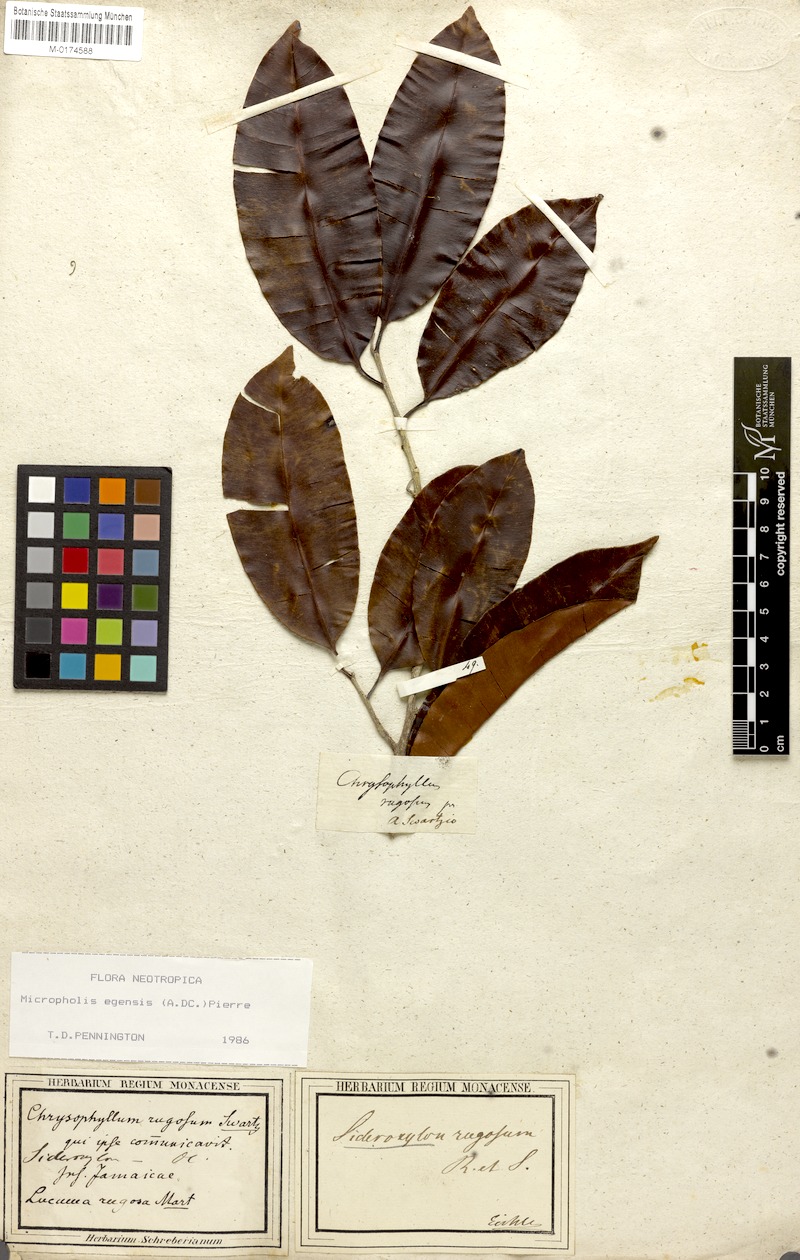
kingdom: Plantae
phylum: Tracheophyta
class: Magnoliopsida
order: Ericales
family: Sapotaceae
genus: Micropholis
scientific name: Micropholis egensis
